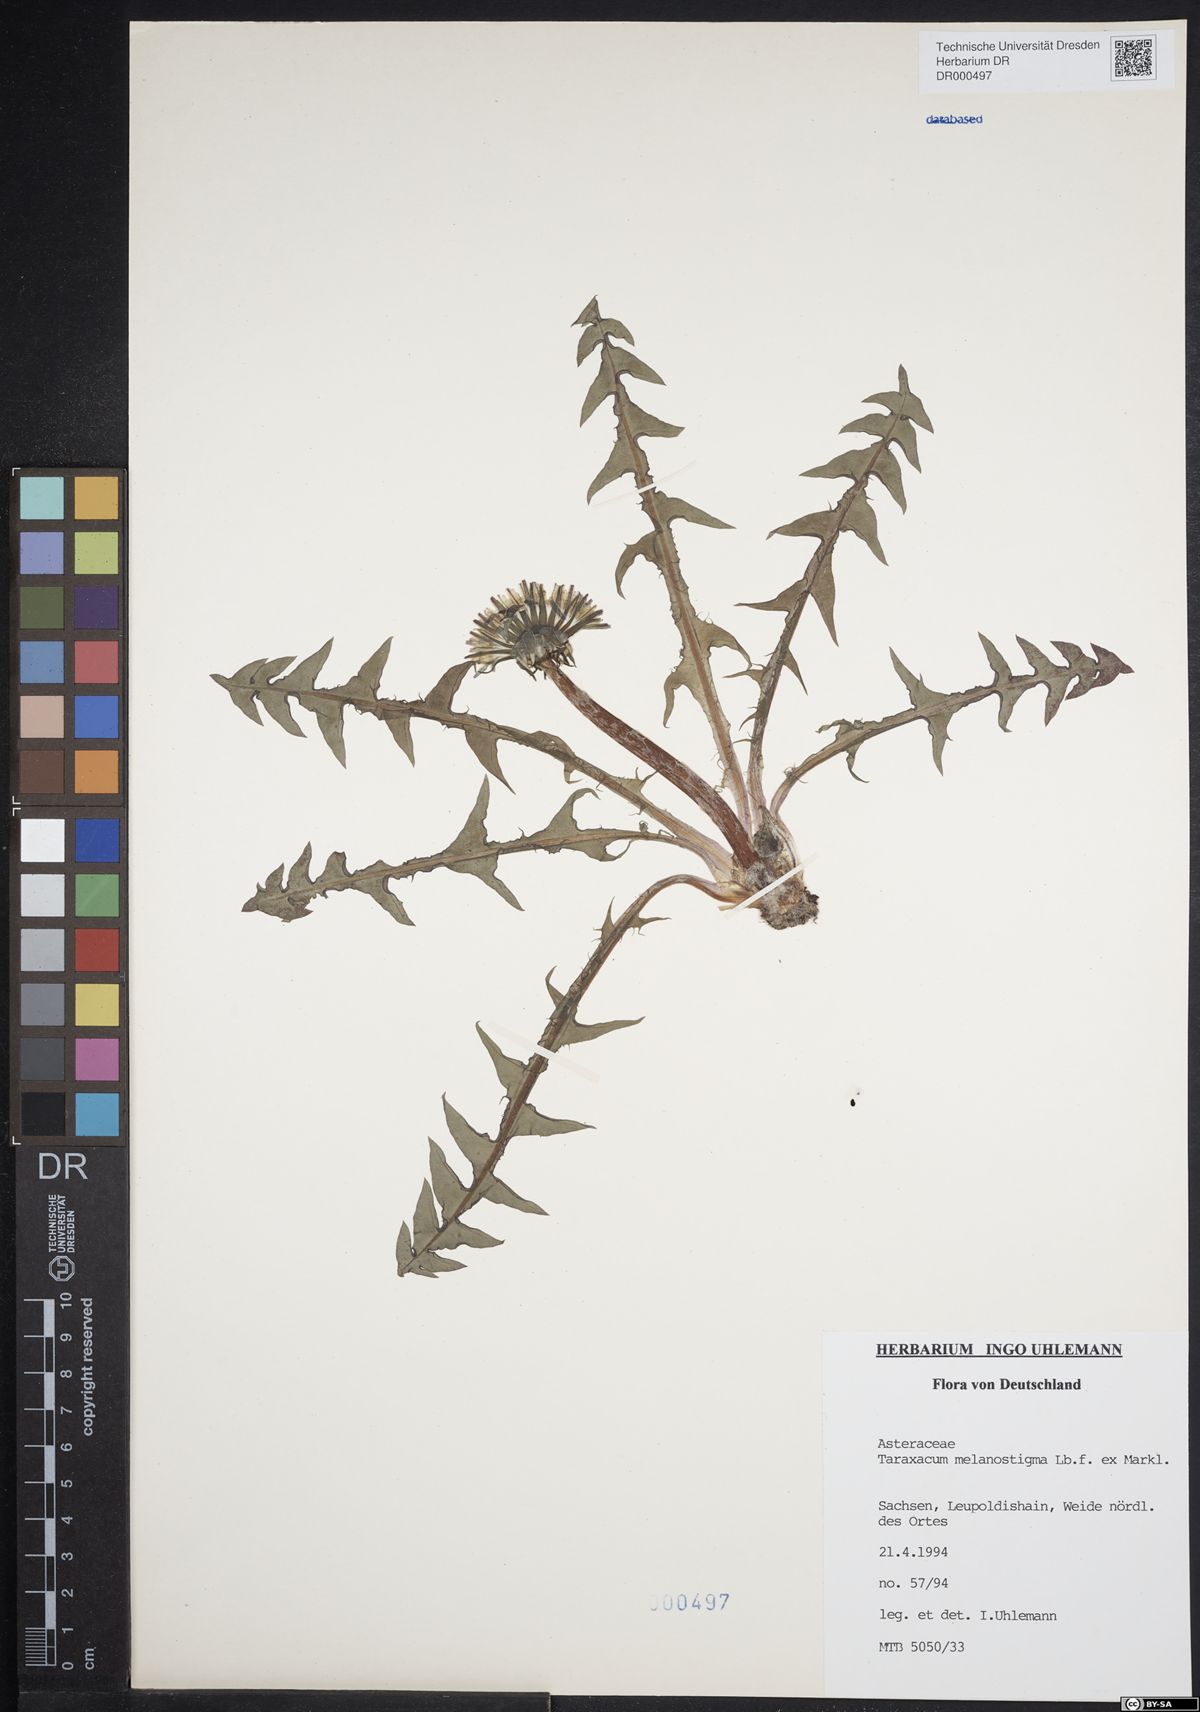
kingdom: Plantae
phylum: Tracheophyta
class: Magnoliopsida
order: Asterales
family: Asteraceae
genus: Taraxacum
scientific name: Taraxacum melanostigma
